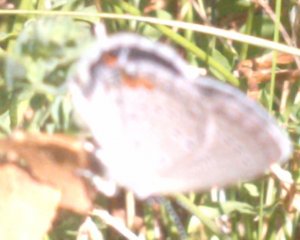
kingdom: Animalia
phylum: Arthropoda
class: Insecta
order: Lepidoptera
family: Lycaenidae
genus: Elkalyce
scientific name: Elkalyce comyntas
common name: Eastern Tailed-Blue
